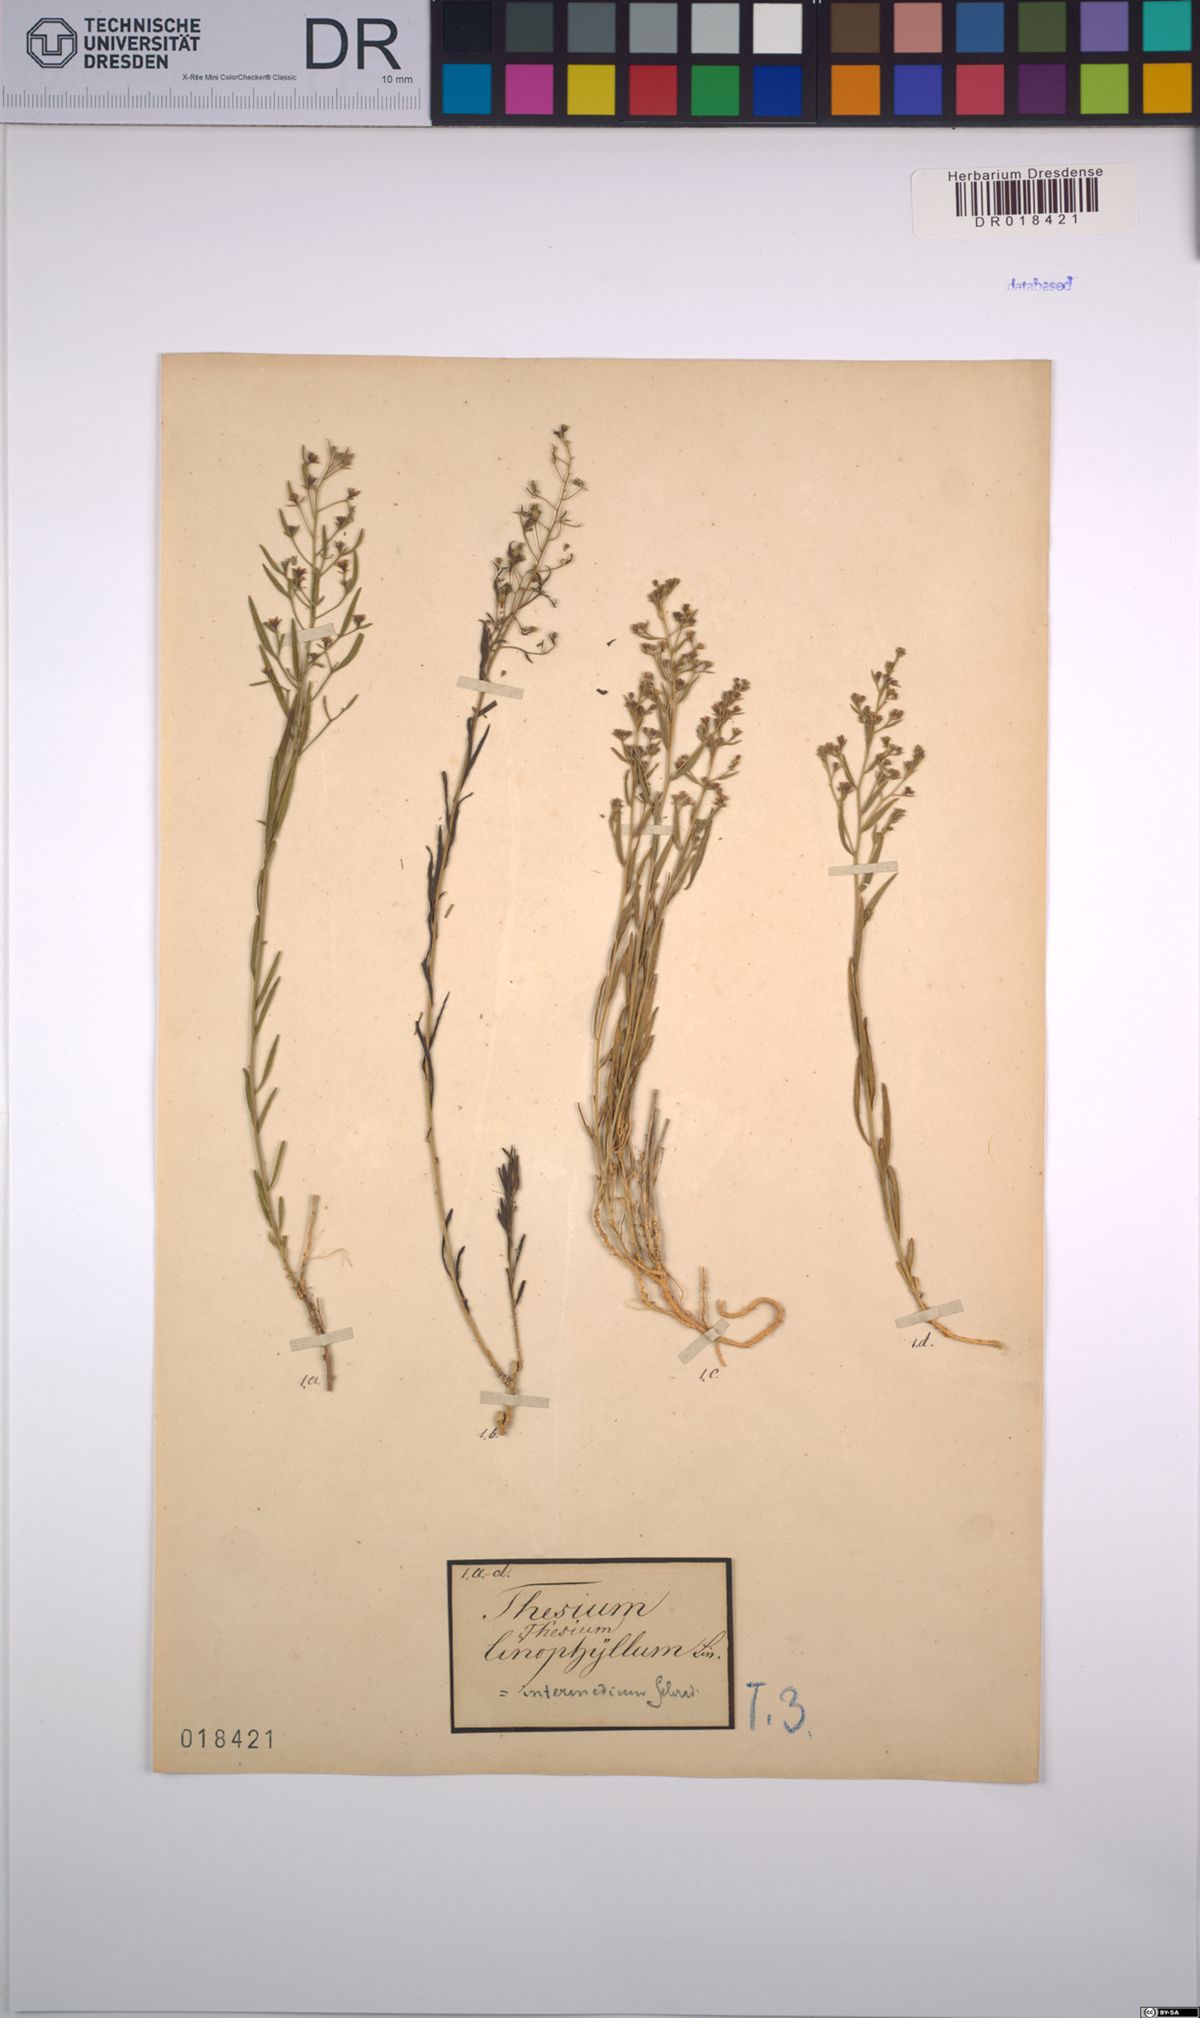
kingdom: Plantae
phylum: Tracheophyta
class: Magnoliopsida
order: Santalales
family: Thesiaceae
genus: Thesium
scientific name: Thesium linophyllon
